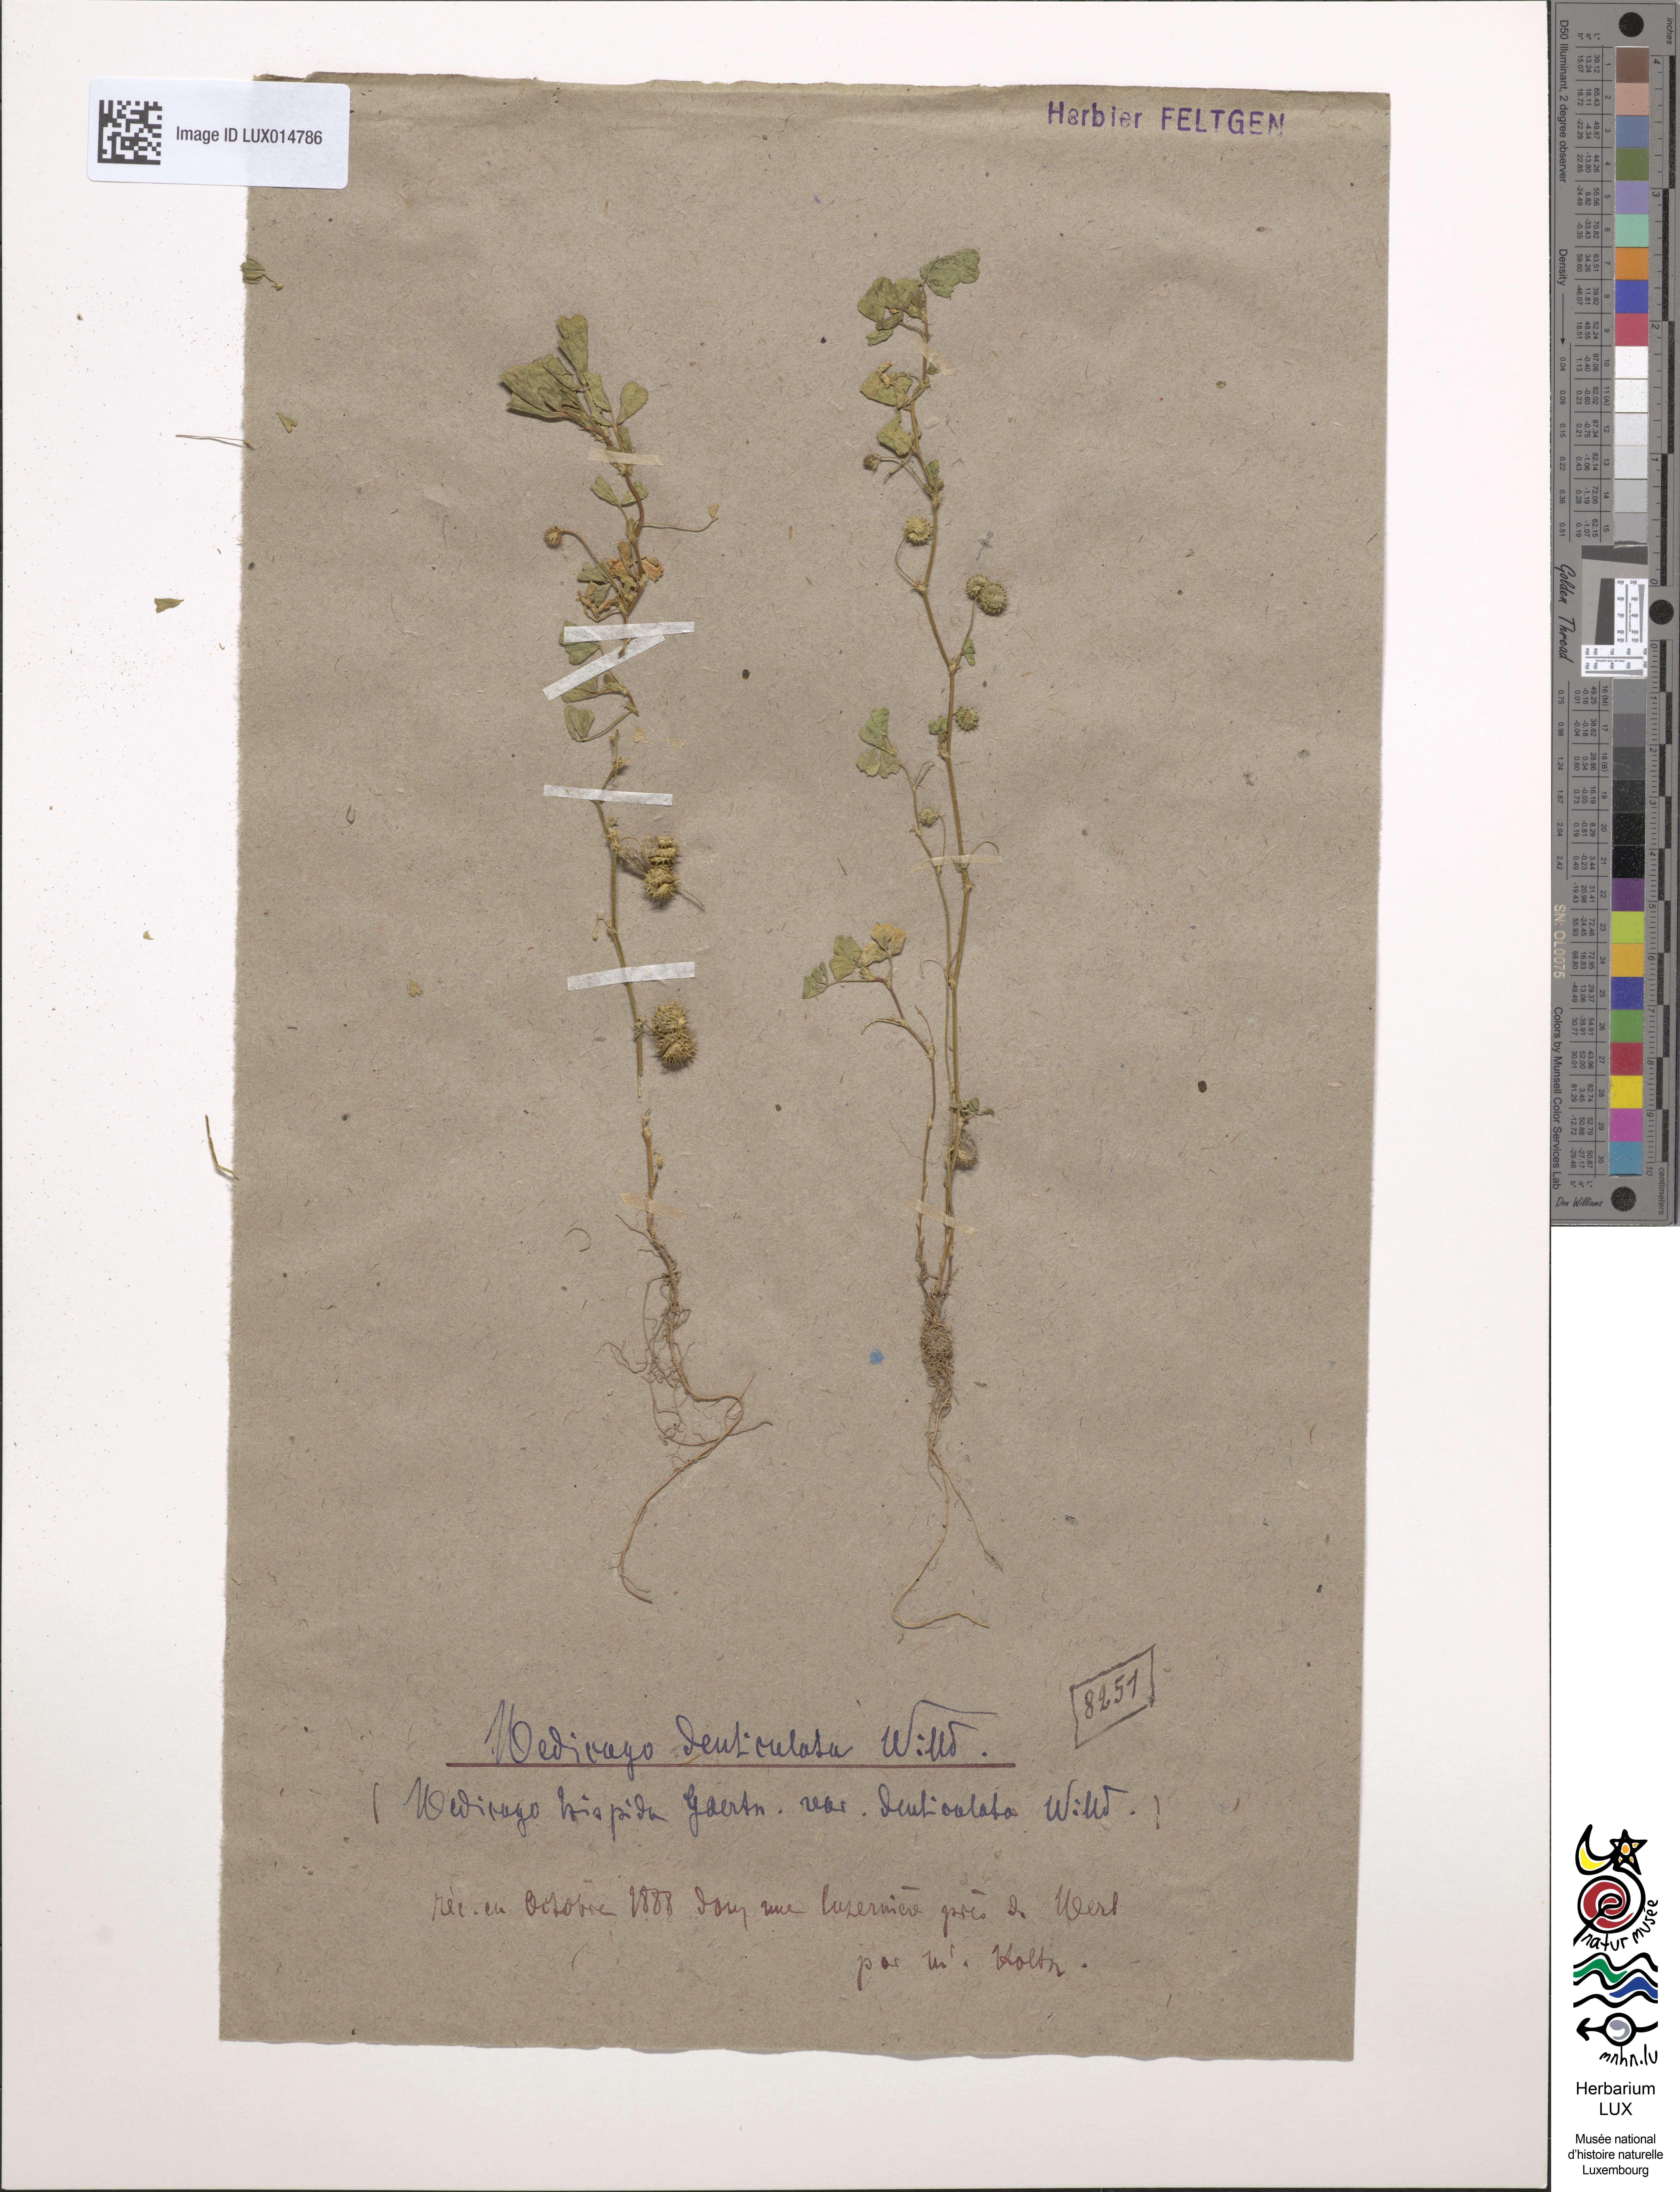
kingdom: Plantae
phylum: Tracheophyta
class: Magnoliopsida
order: Fabales
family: Fabaceae
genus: Medicago
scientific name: Medicago polymorpha
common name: Burclover
